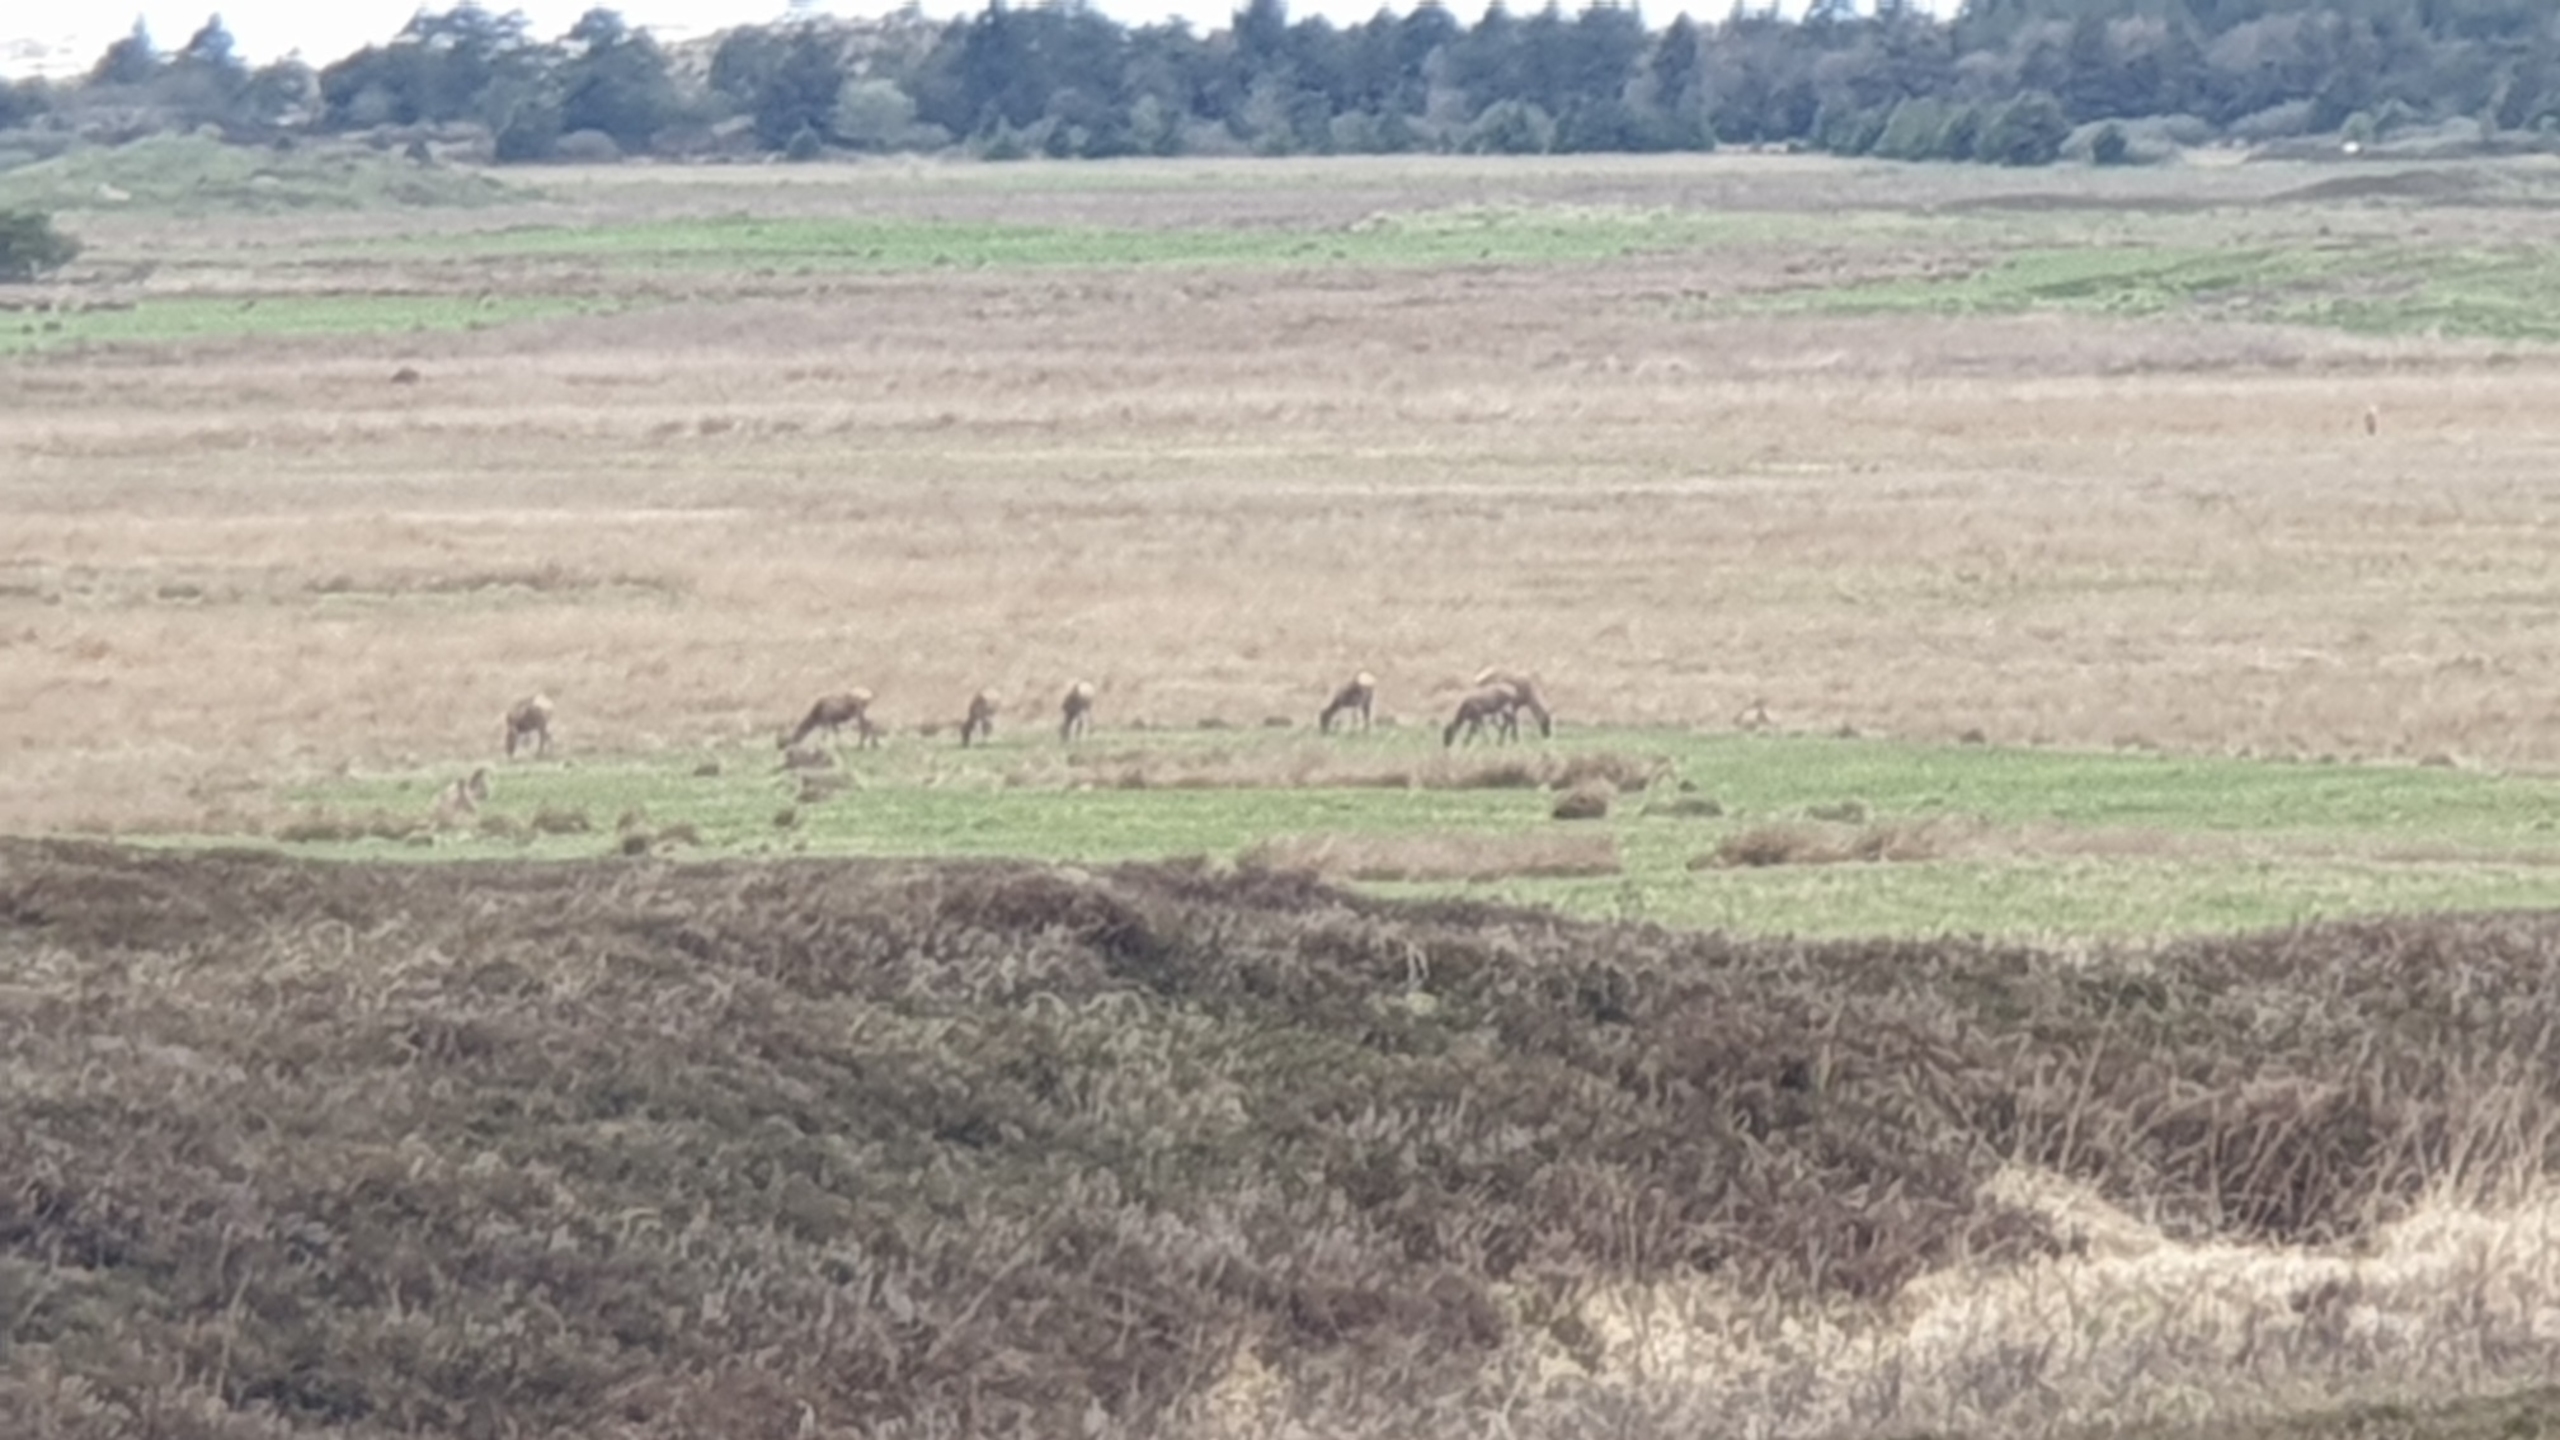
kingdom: Animalia
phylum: Chordata
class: Mammalia
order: Artiodactyla
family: Cervidae
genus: Cervus
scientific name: Cervus elaphus
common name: Krondyr
